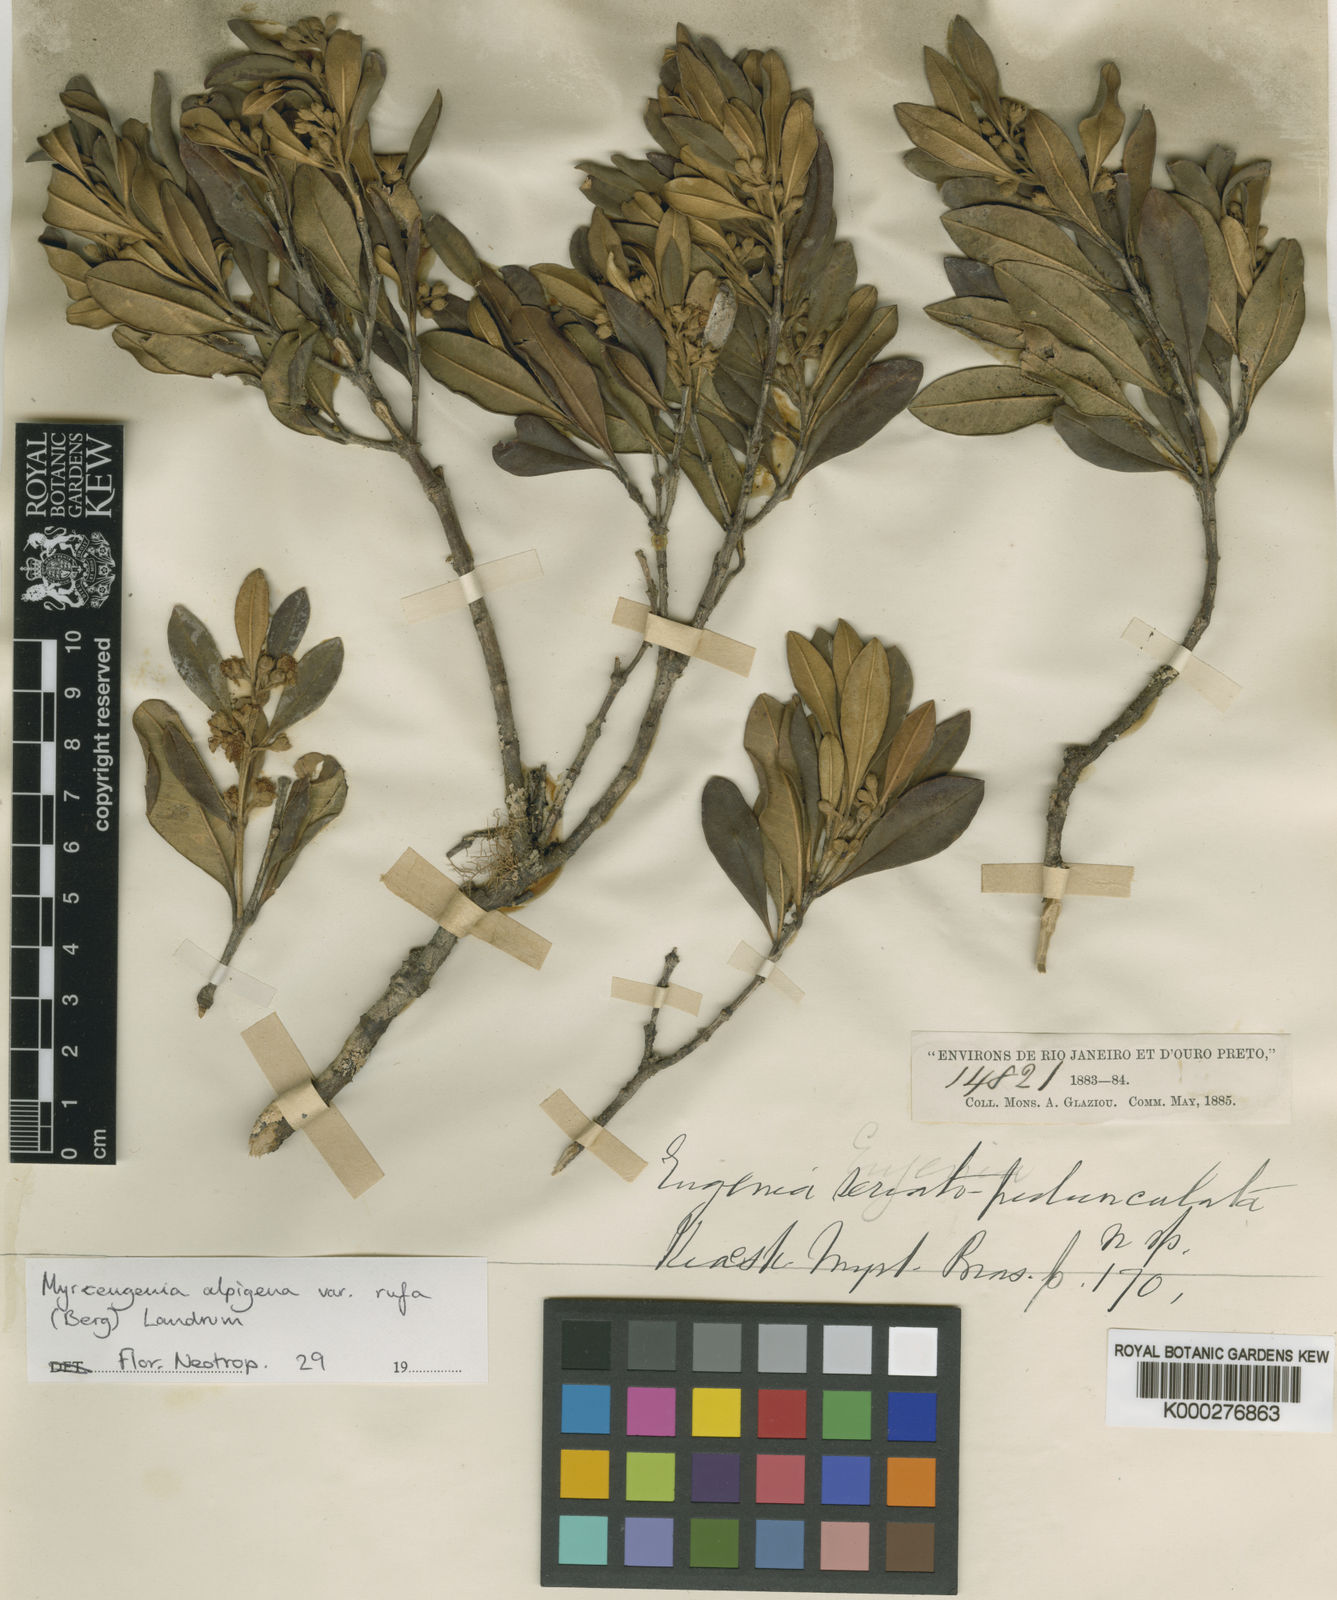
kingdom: Plantae
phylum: Tracheophyta
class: Magnoliopsida
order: Myrtales
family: Myrtaceae
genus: Myrceugenia
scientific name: Myrceugenia alpigena
